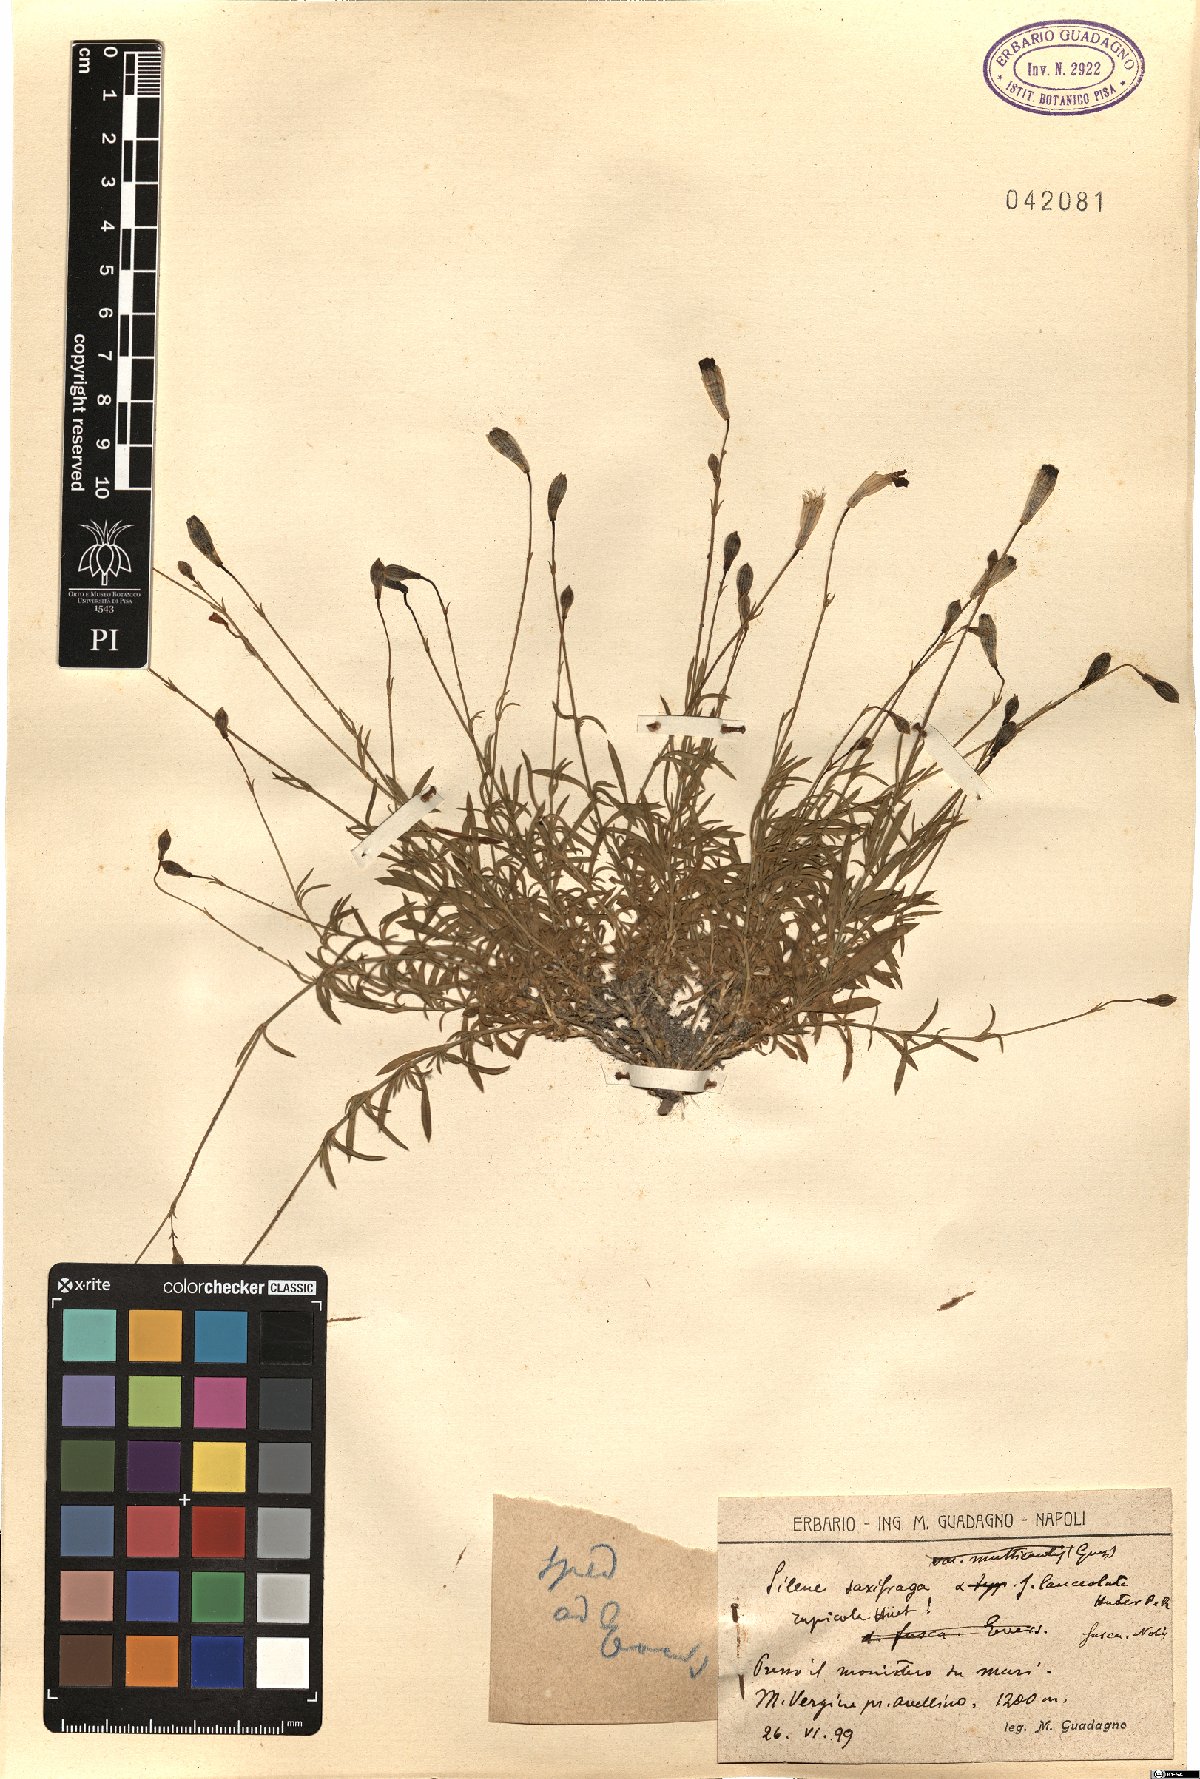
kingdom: Plantae
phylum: Tracheophyta
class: Magnoliopsida
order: Caryophyllales
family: Caryophyllaceae
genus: Silene
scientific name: Silene saxifraga
